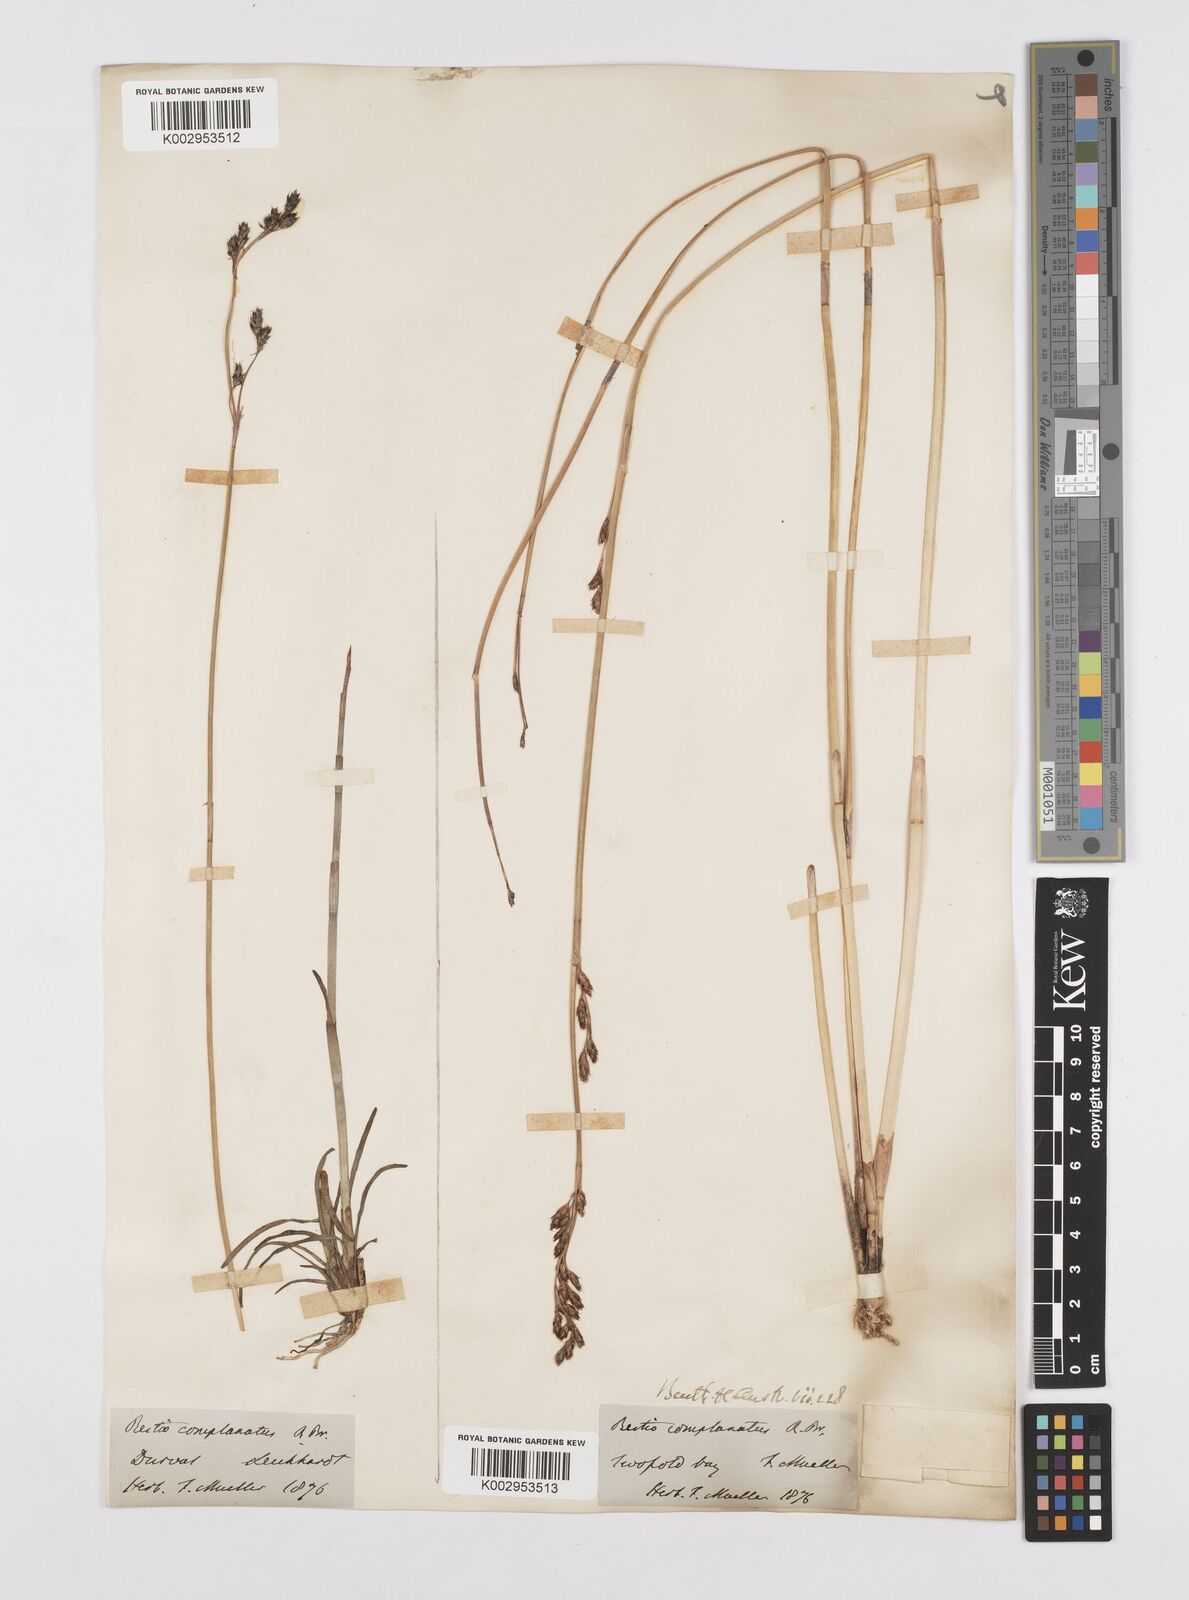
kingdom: Plantae
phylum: Tracheophyta
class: Liliopsida
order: Poales
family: Restionaceae
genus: Eurychorda
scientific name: Eurychorda complanata
